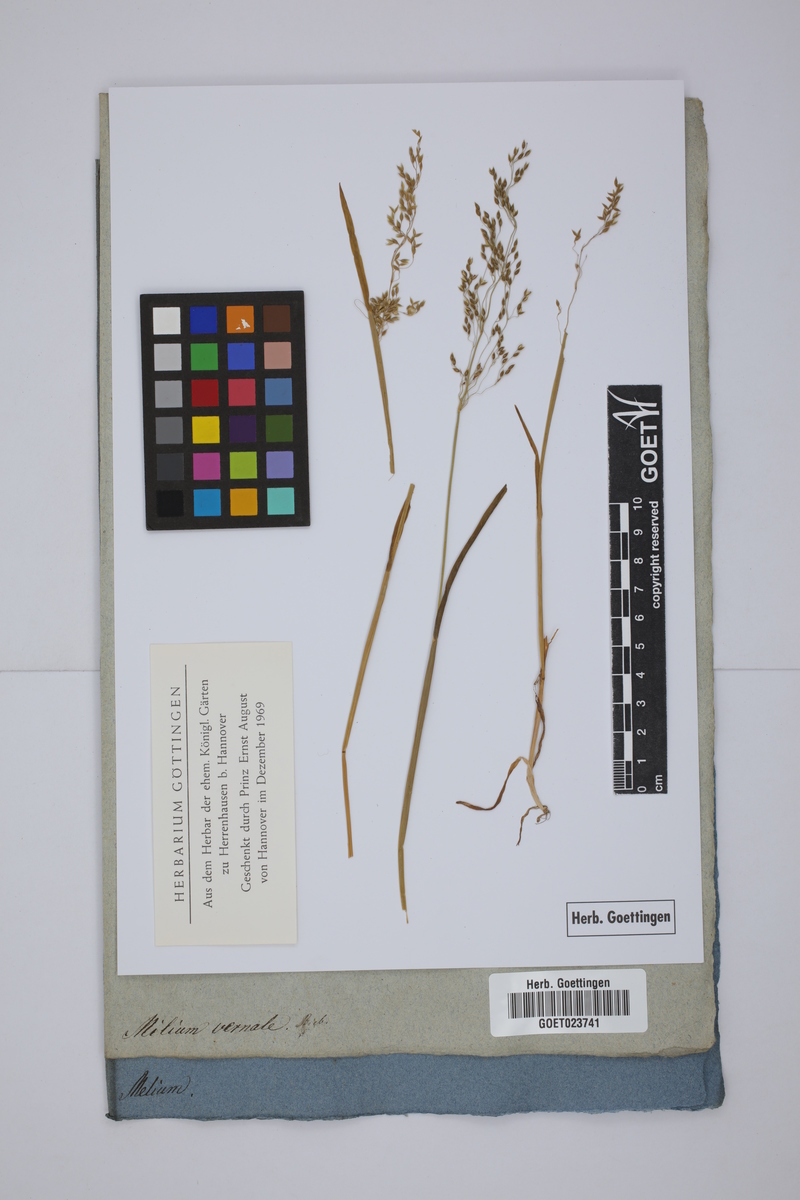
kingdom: Plantae
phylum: Tracheophyta
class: Liliopsida
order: Poales
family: Poaceae
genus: Milium
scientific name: Milium vernale
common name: Early millet
